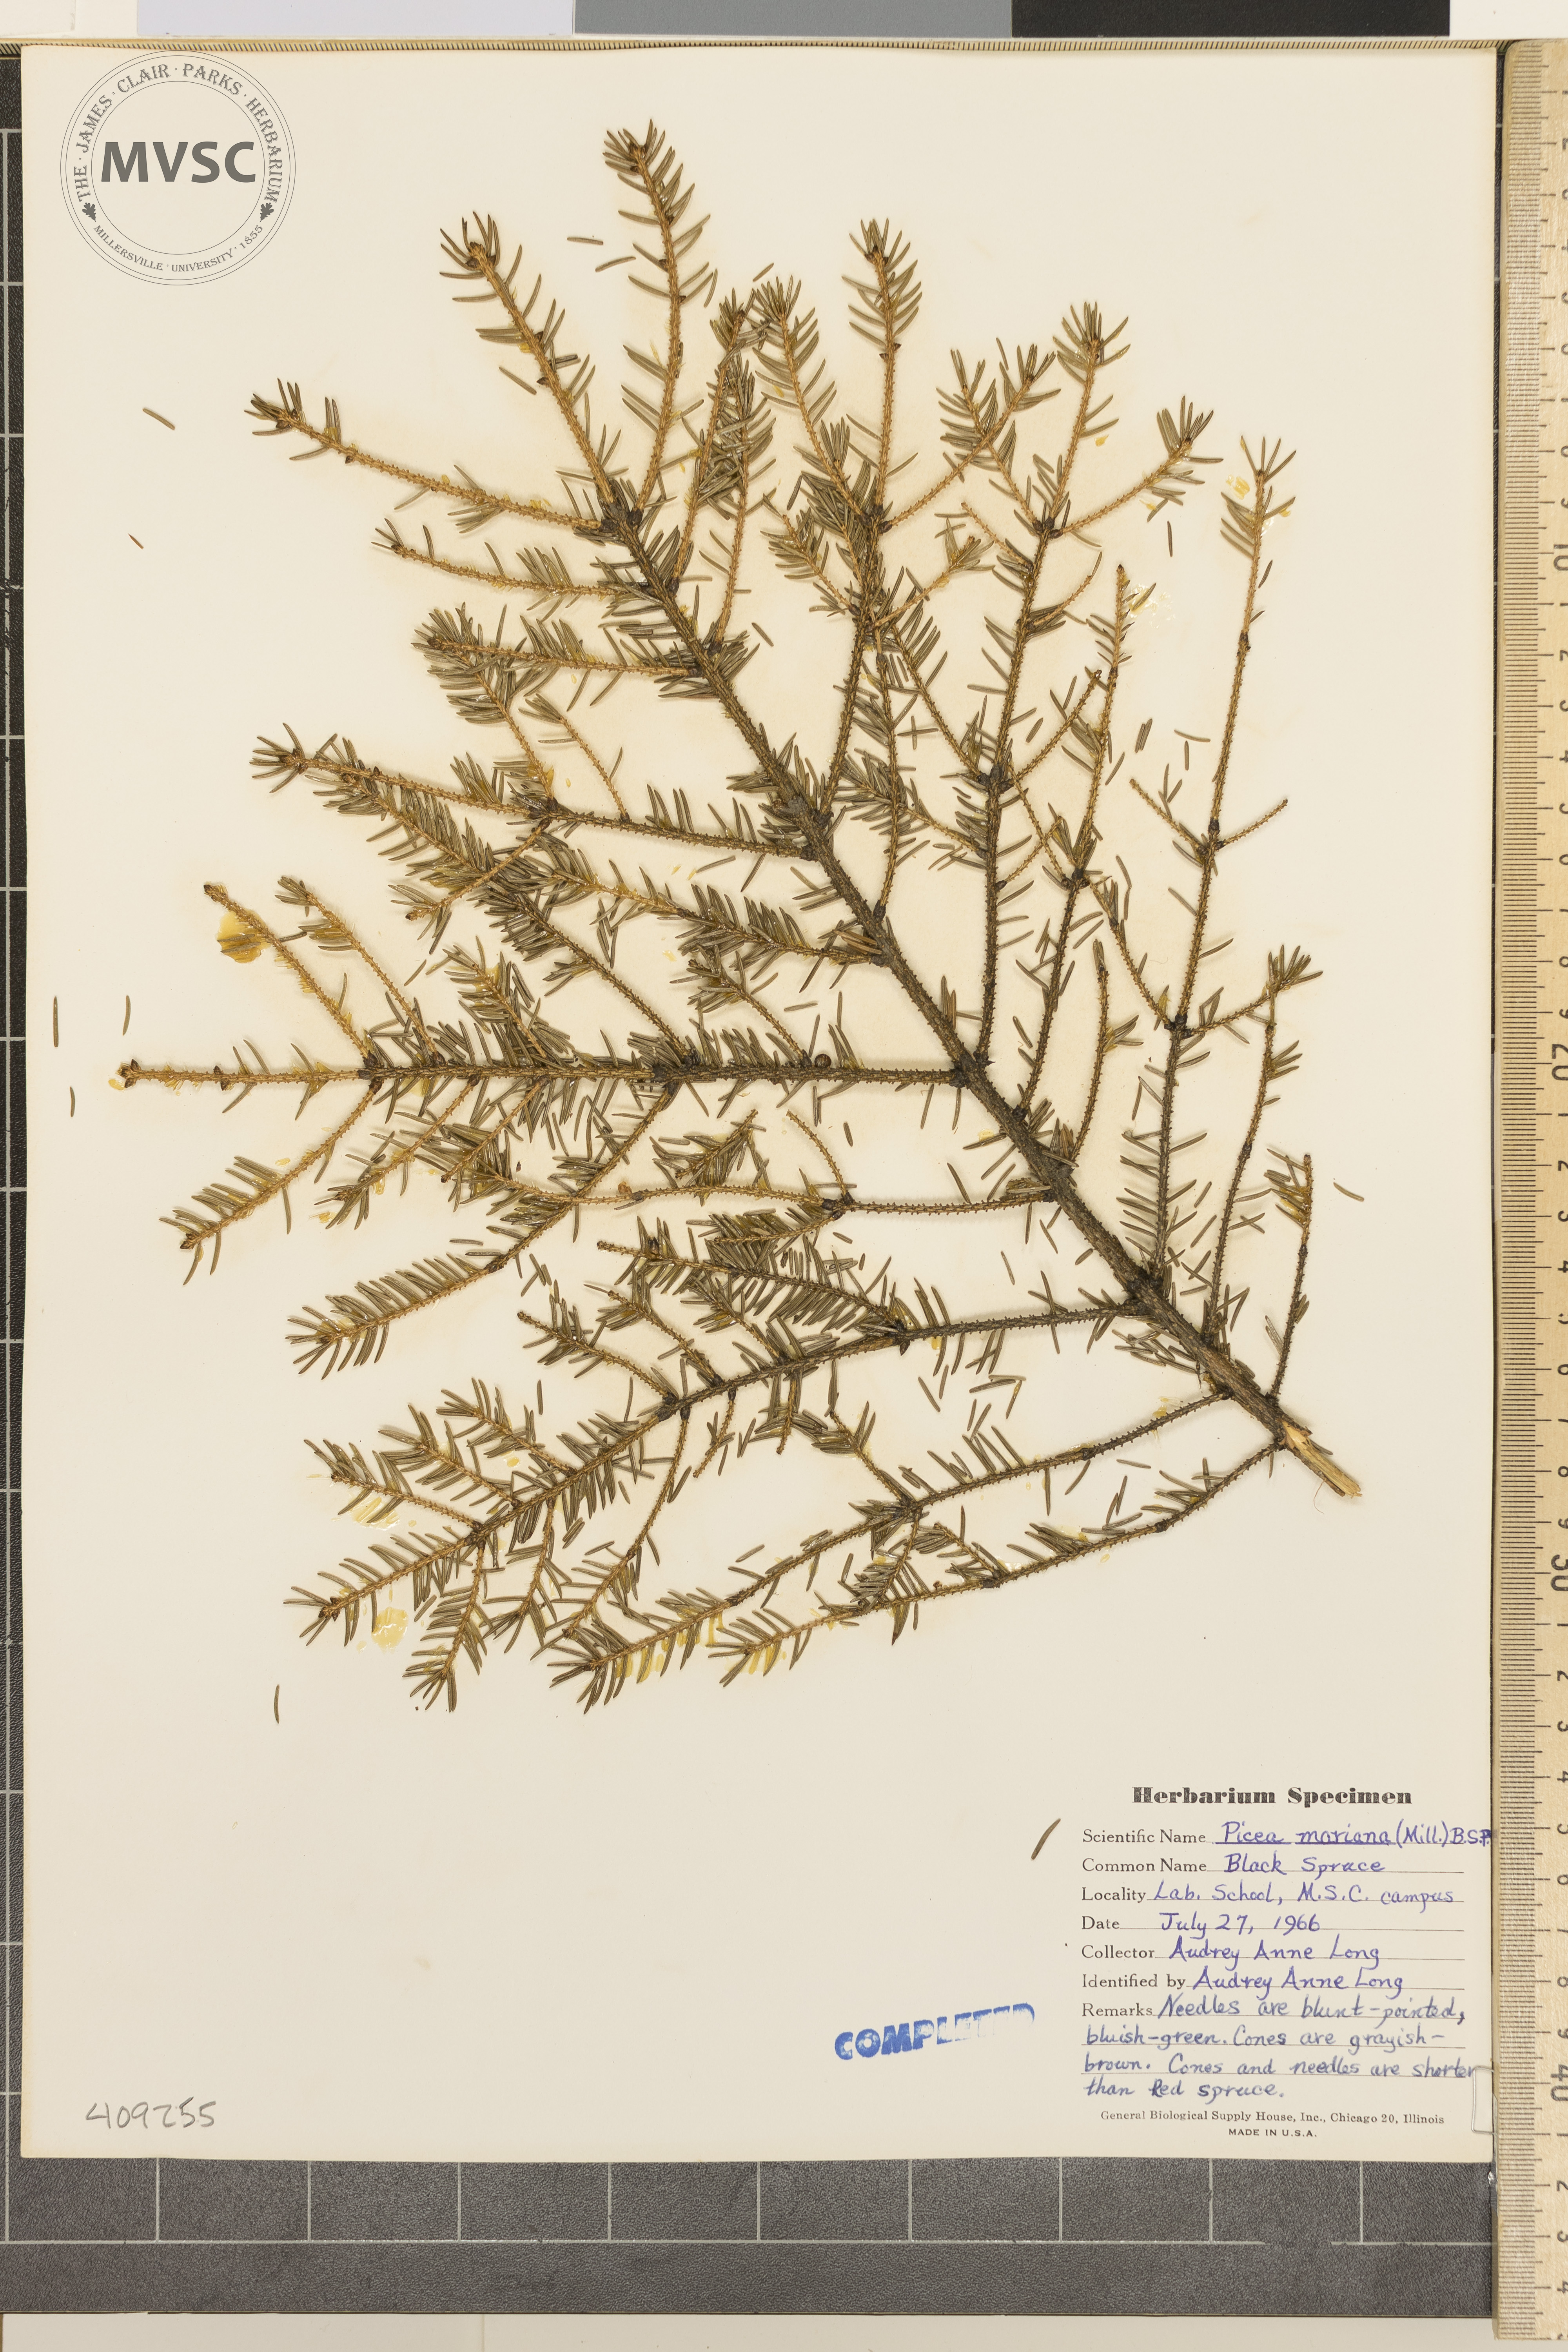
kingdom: Plantae
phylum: Tracheophyta
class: Pinopsida
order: Pinales
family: Pinaceae
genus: Picea
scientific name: Picea mariana
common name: Black spruce
